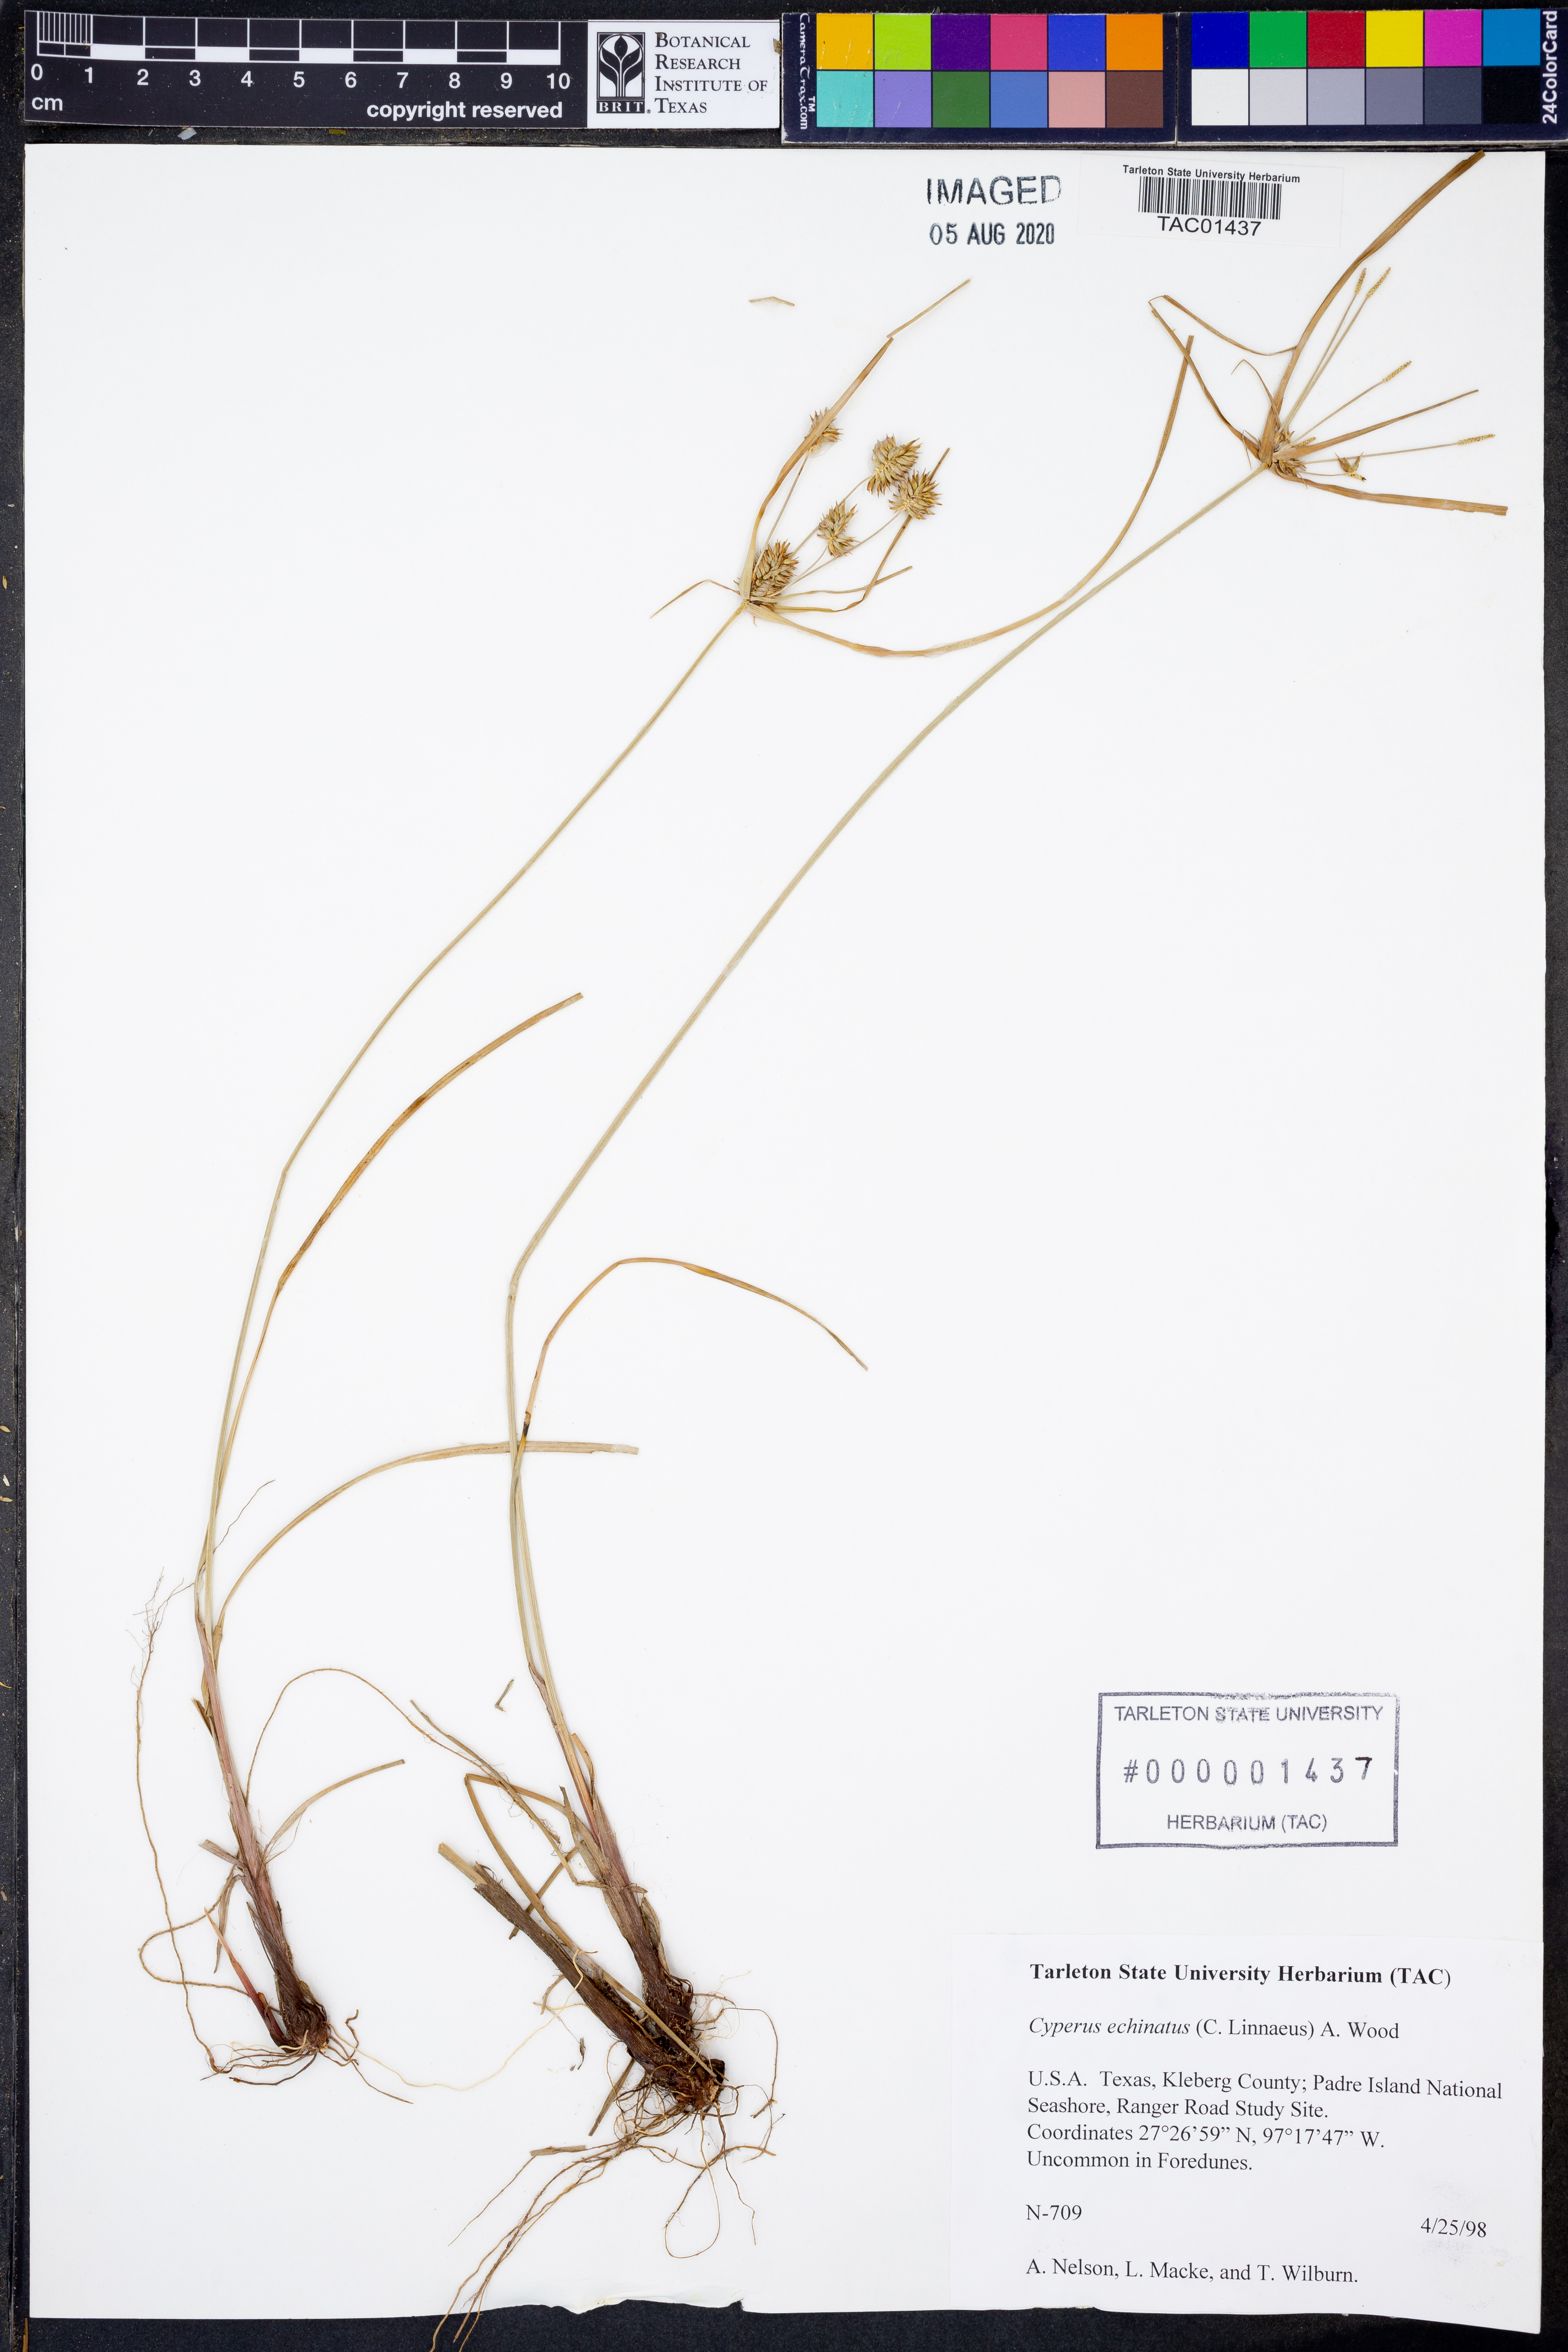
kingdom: Plantae
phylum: Tracheophyta
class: Liliopsida
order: Poales
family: Cyperaceae
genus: Cyperus
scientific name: Cyperus echinatus
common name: Teasel sedge
